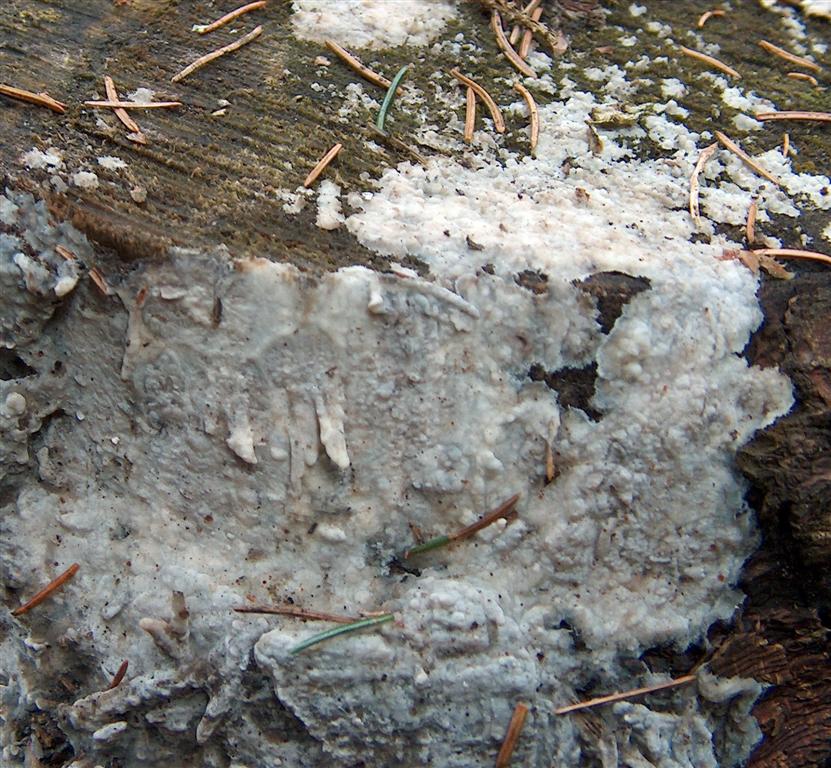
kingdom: Fungi
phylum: Basidiomycota
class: Agaricomycetes
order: Polyporales
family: Phanerochaetaceae
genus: Phanerochaete
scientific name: Phanerochaete velutina
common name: dunet randtråd
